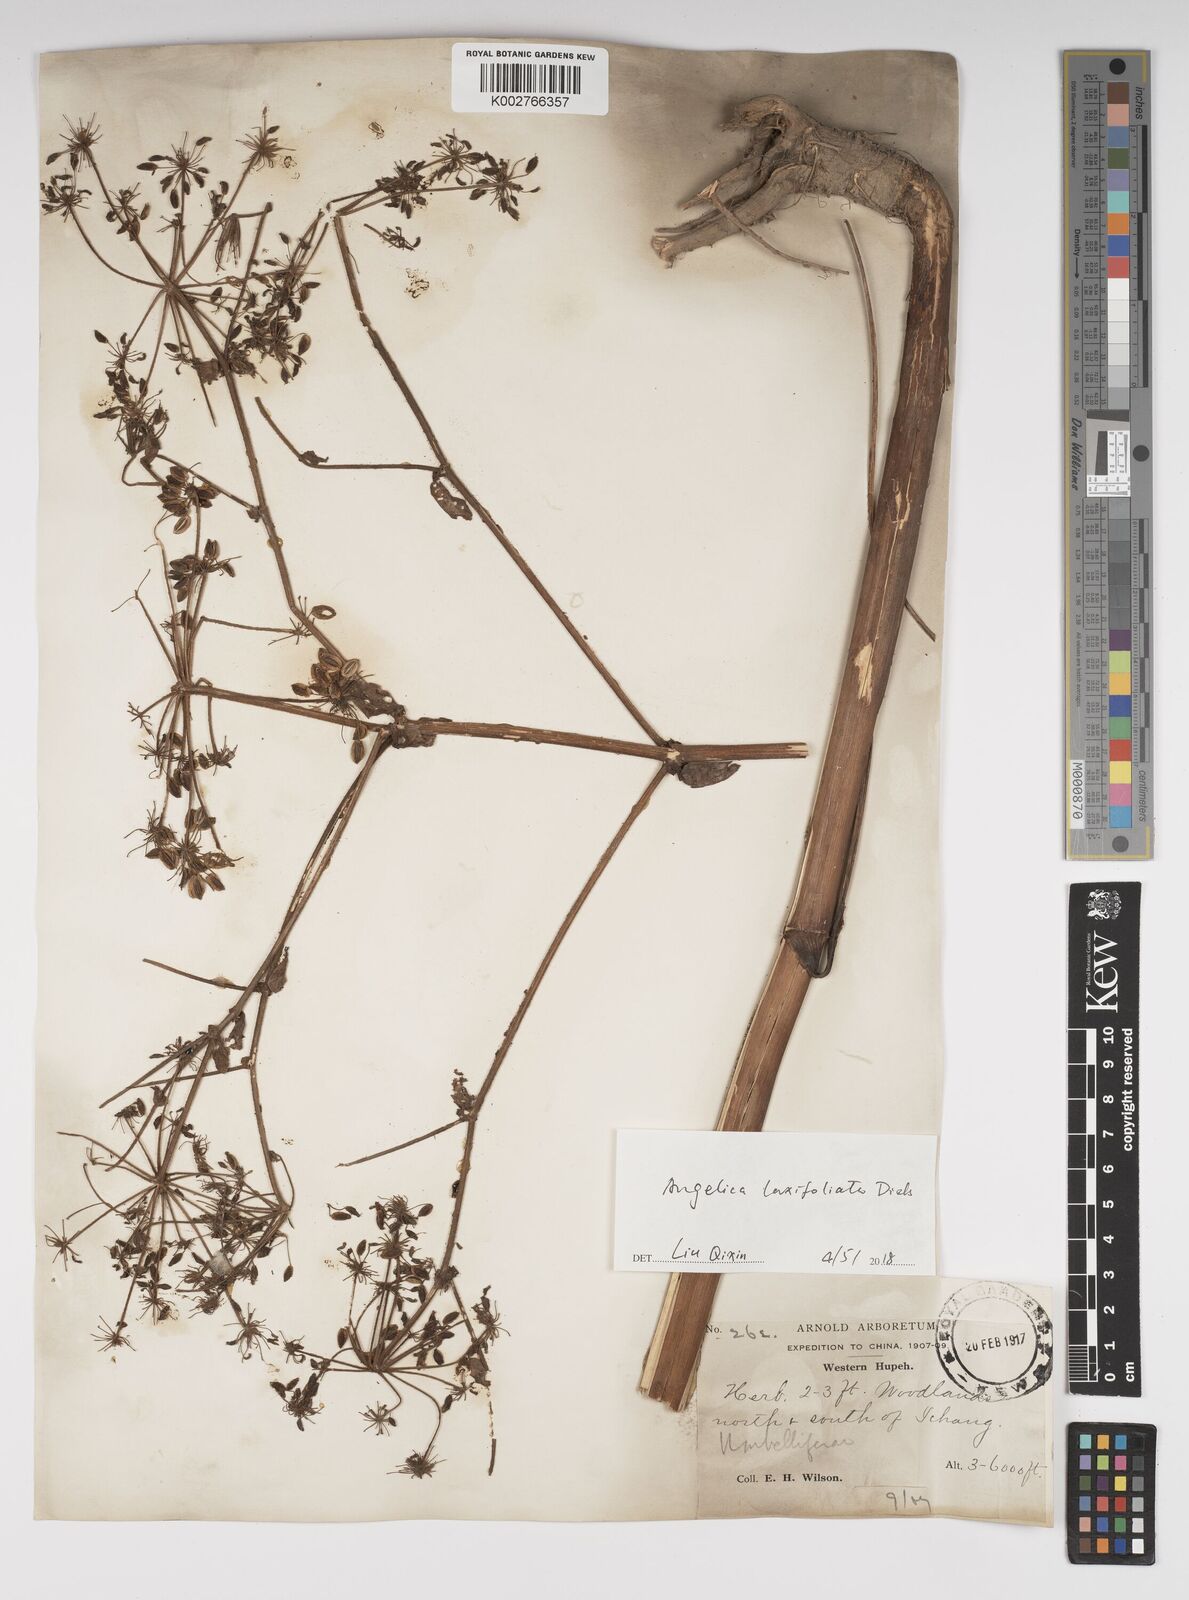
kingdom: Plantae
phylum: Tracheophyta
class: Magnoliopsida
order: Apiales
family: Apiaceae
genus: Angelica
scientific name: Angelica laxifoliata
